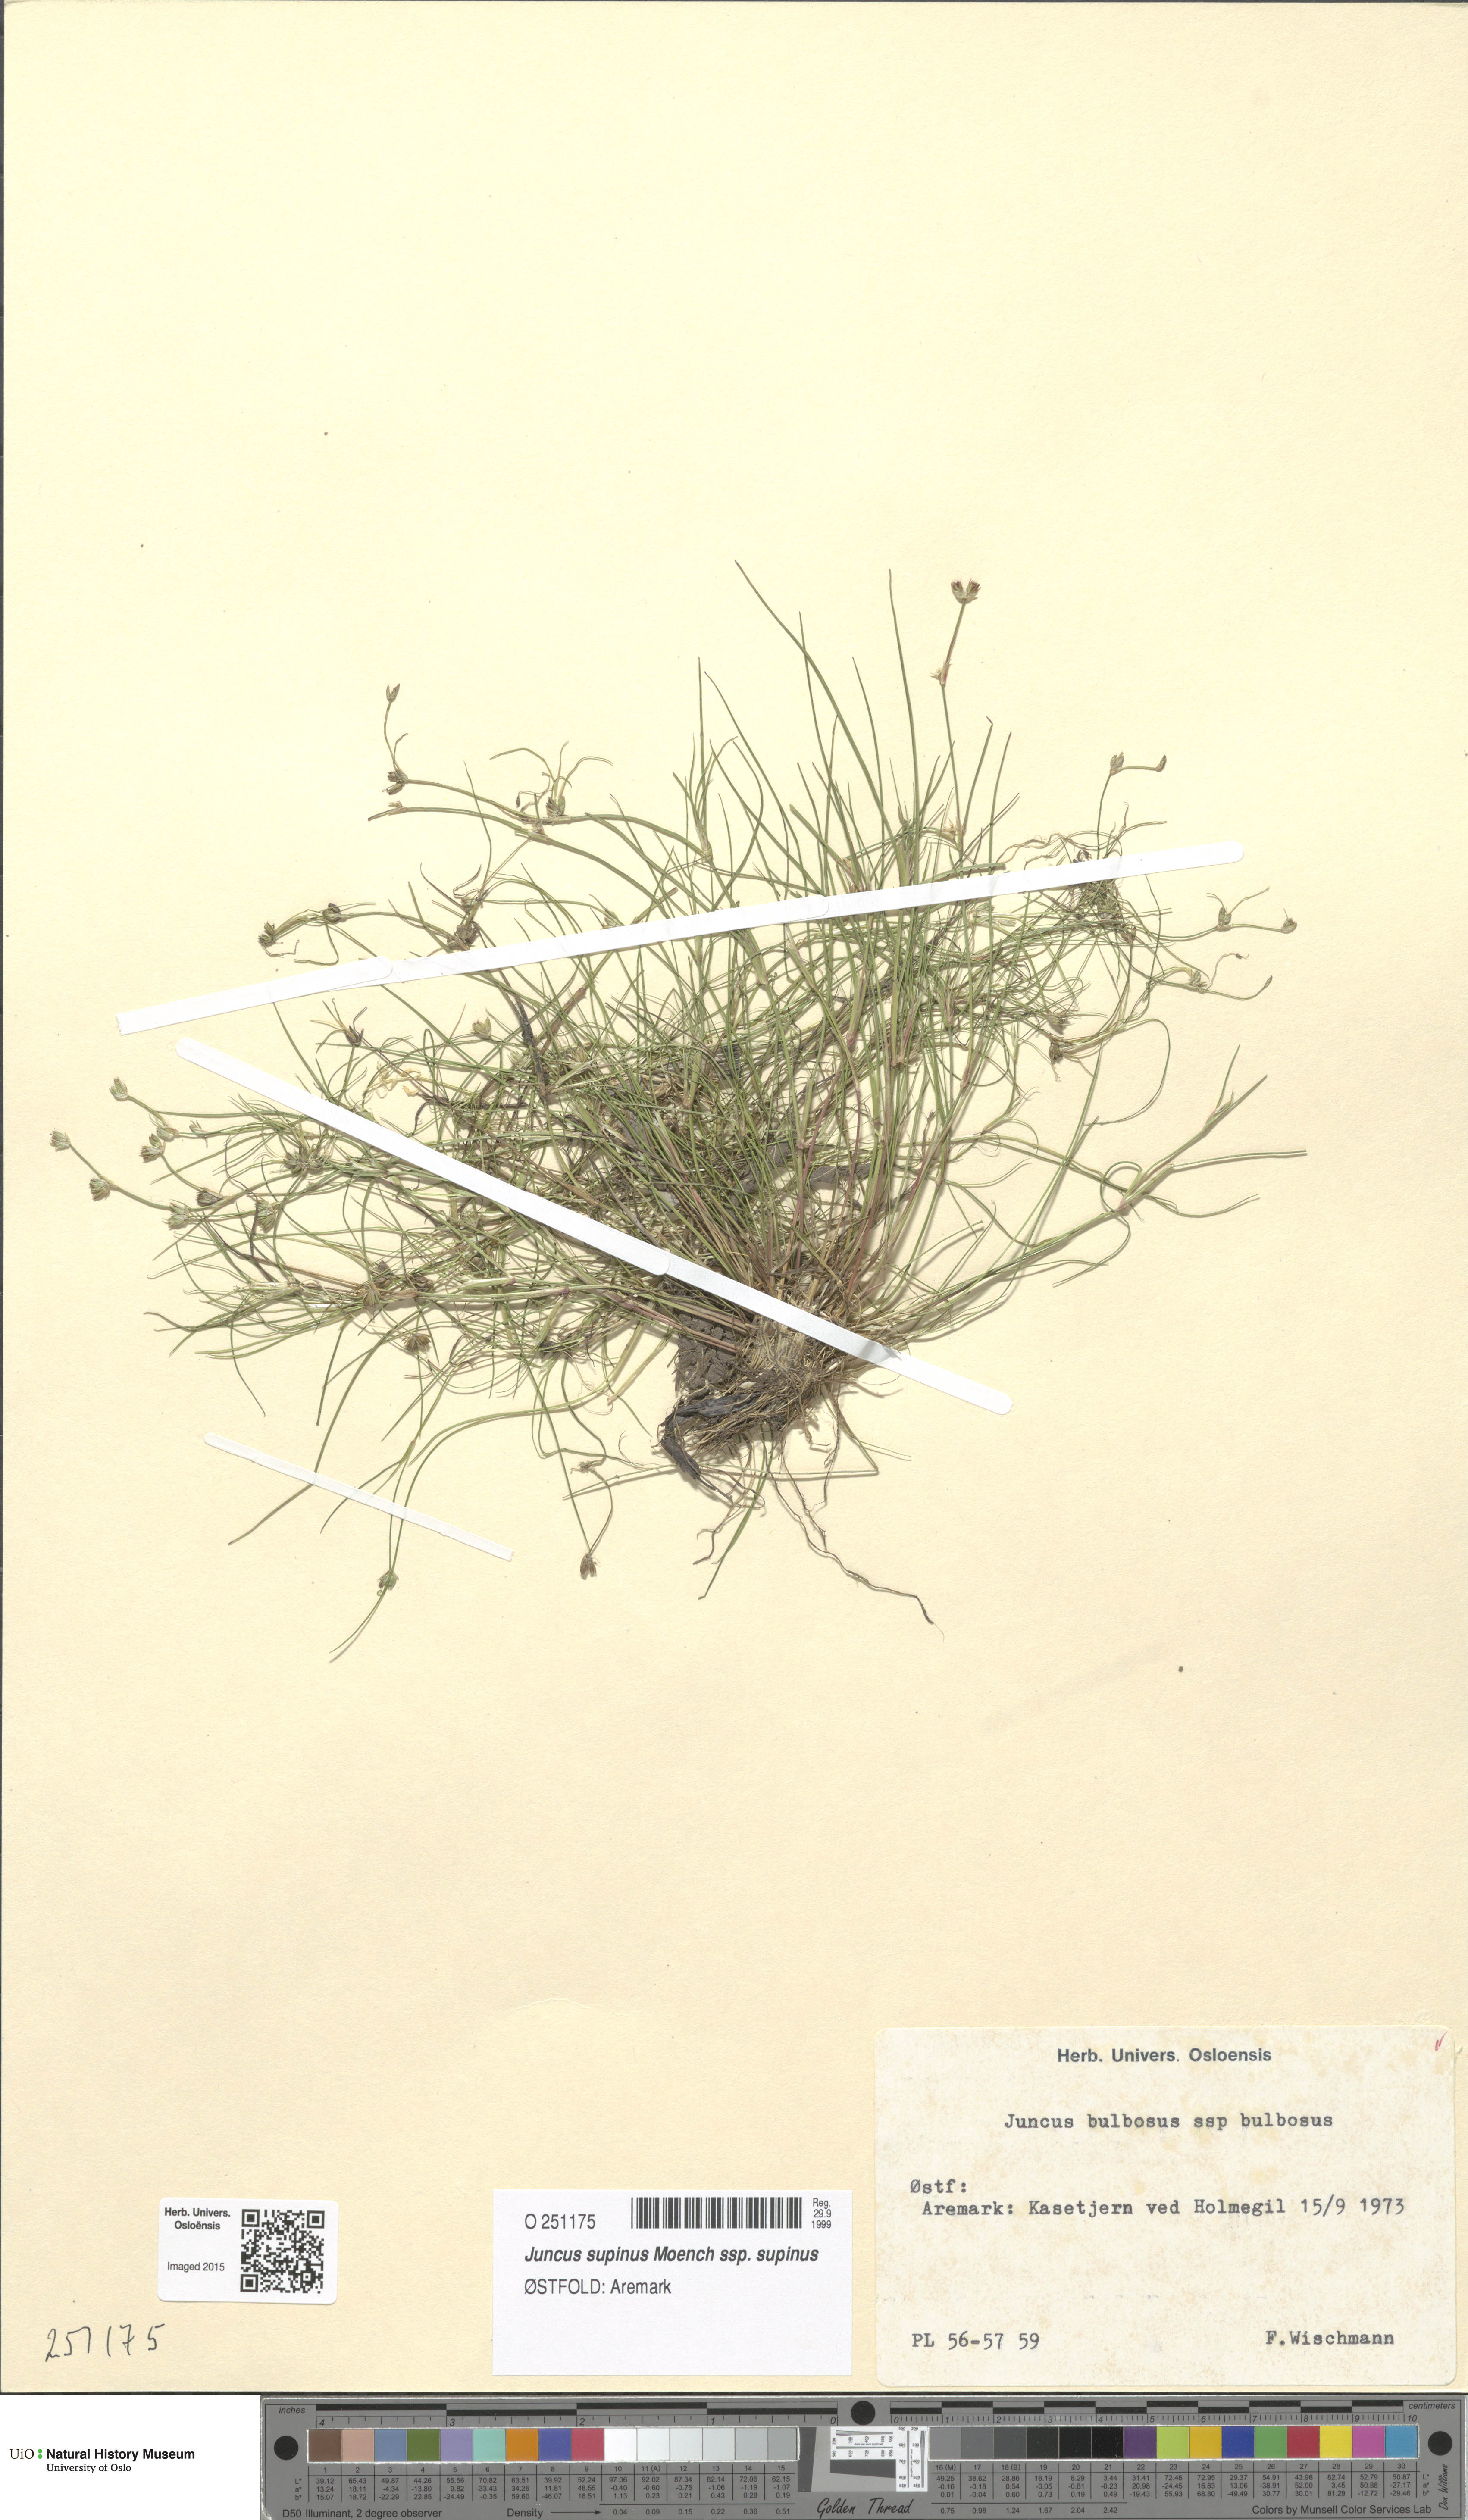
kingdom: Plantae
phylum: Tracheophyta
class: Liliopsida
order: Poales
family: Juncaceae
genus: Juncus
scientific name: Juncus bulbosus
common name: Bulbous rush
